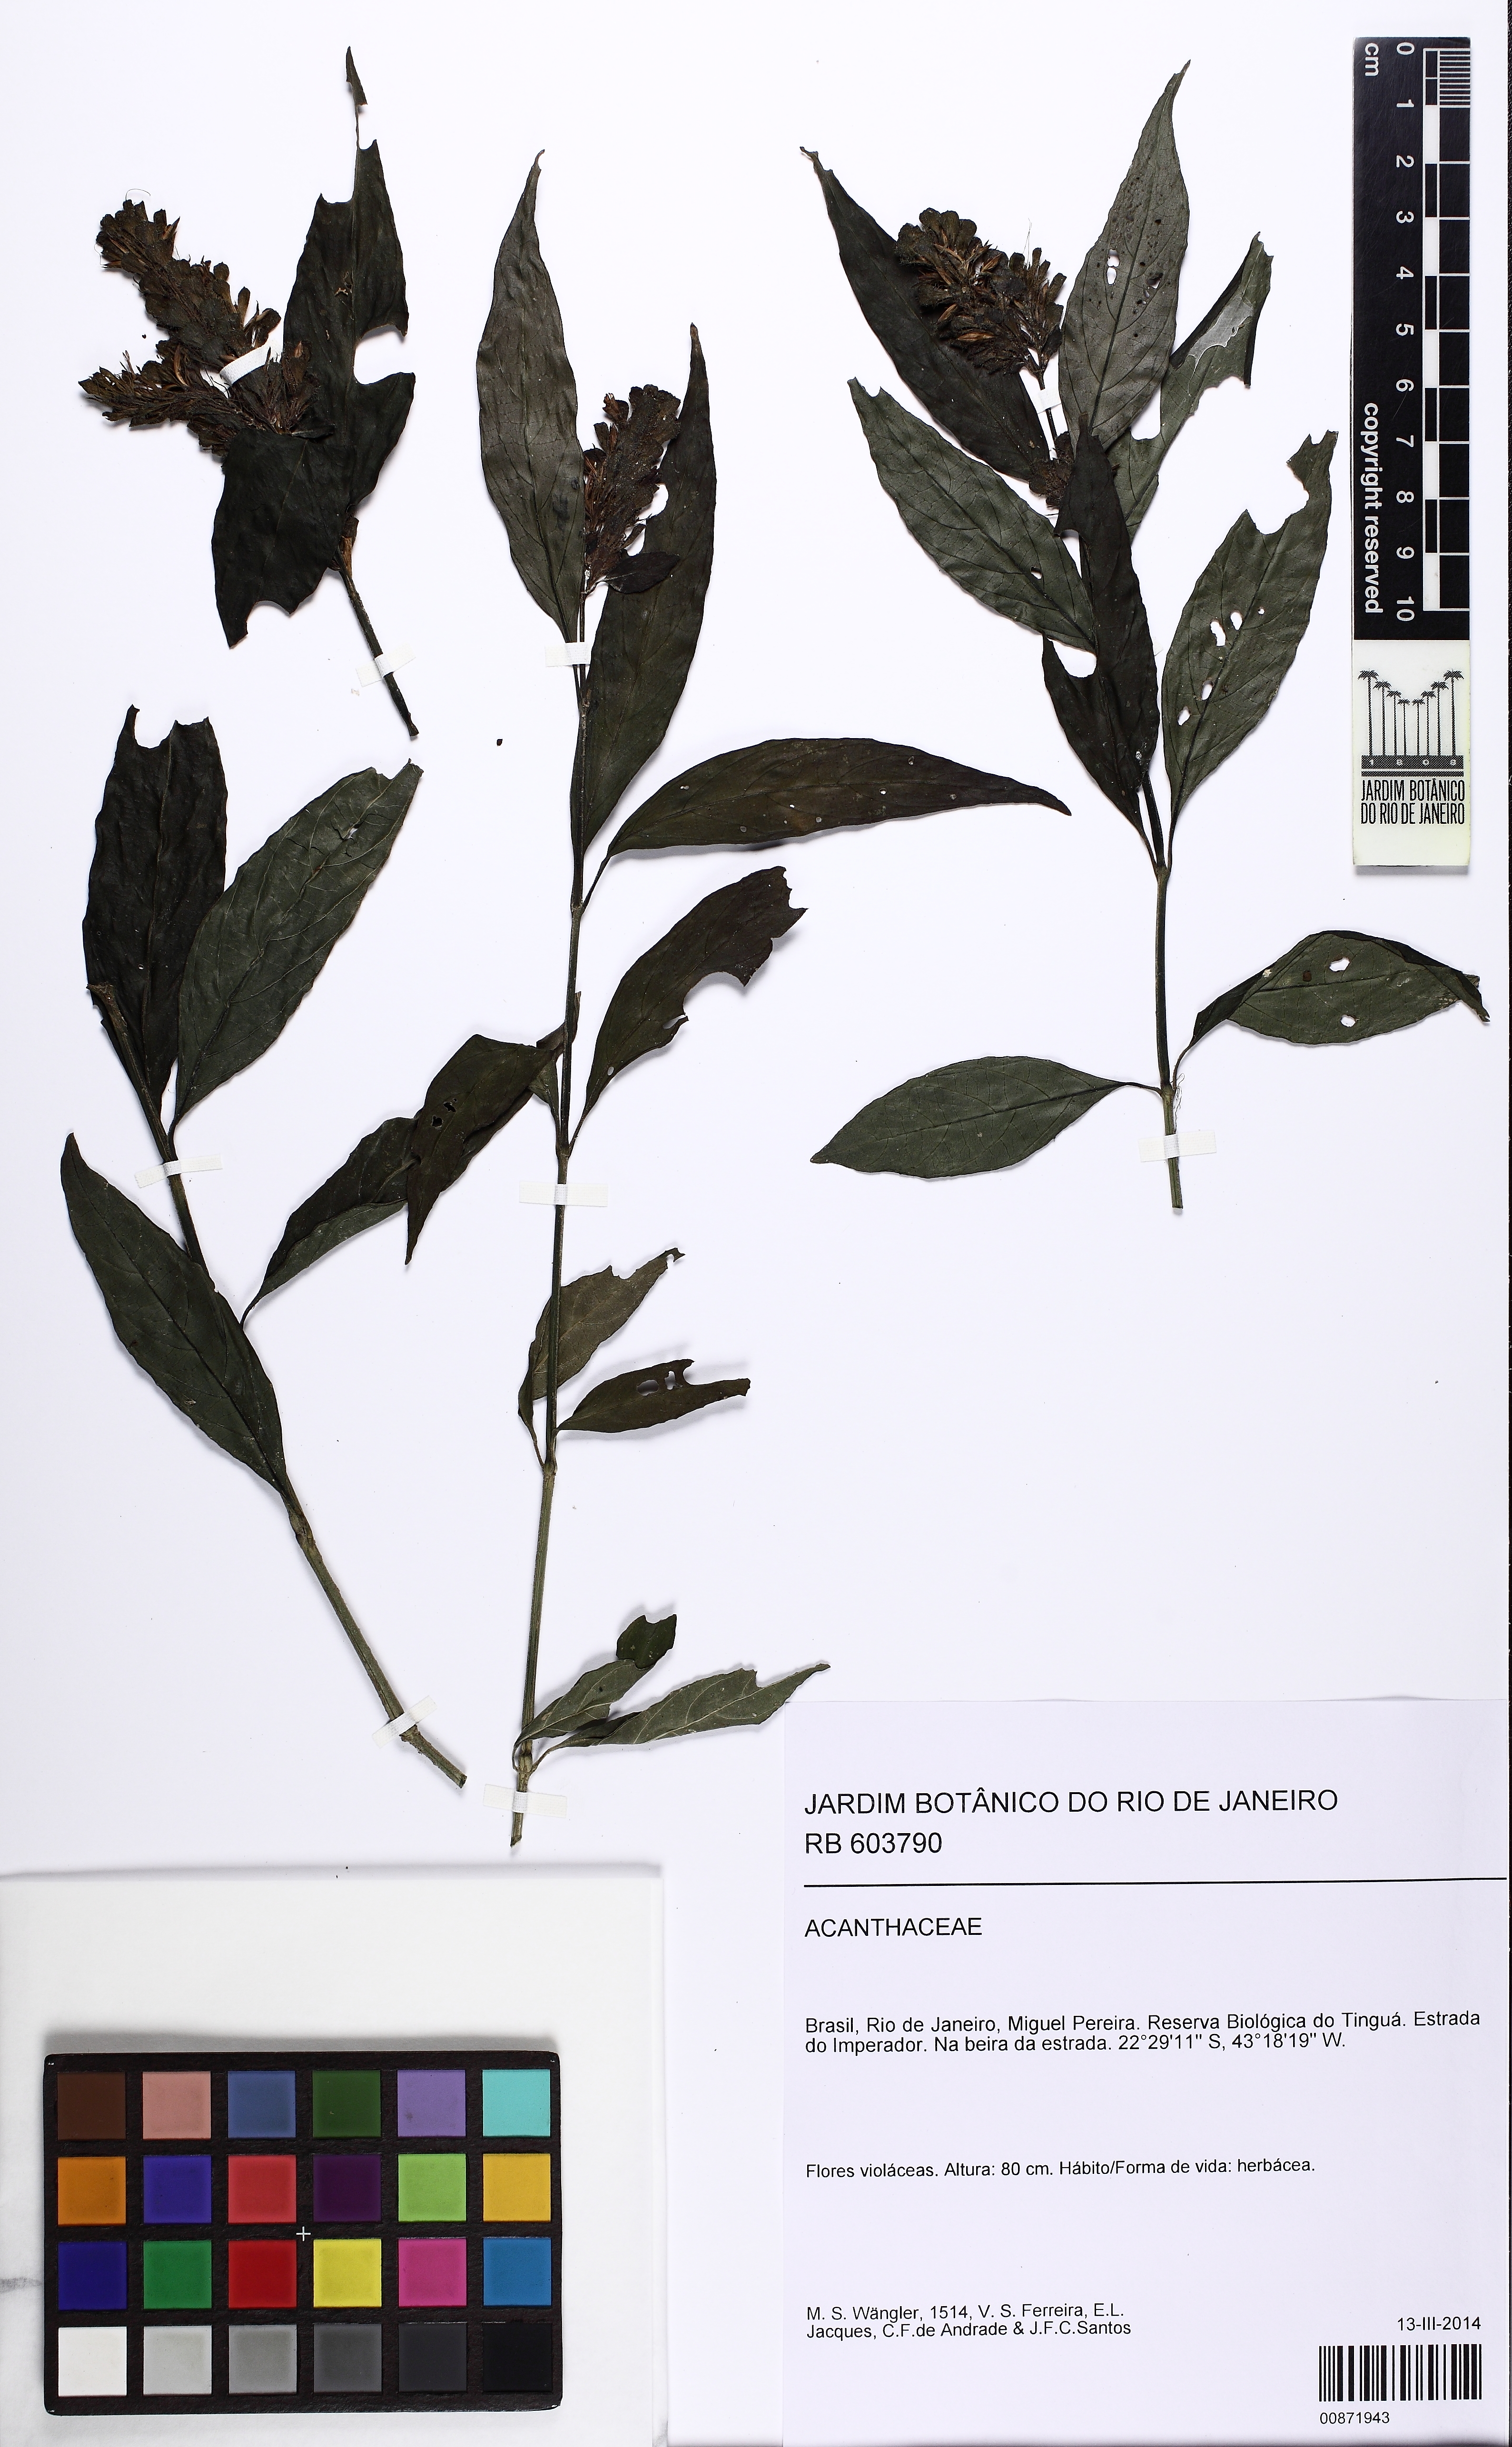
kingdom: Plantae
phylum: Tracheophyta
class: Magnoliopsida
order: Lamiales
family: Acanthaceae
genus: Ruellia
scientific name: Ruellia makoyana
